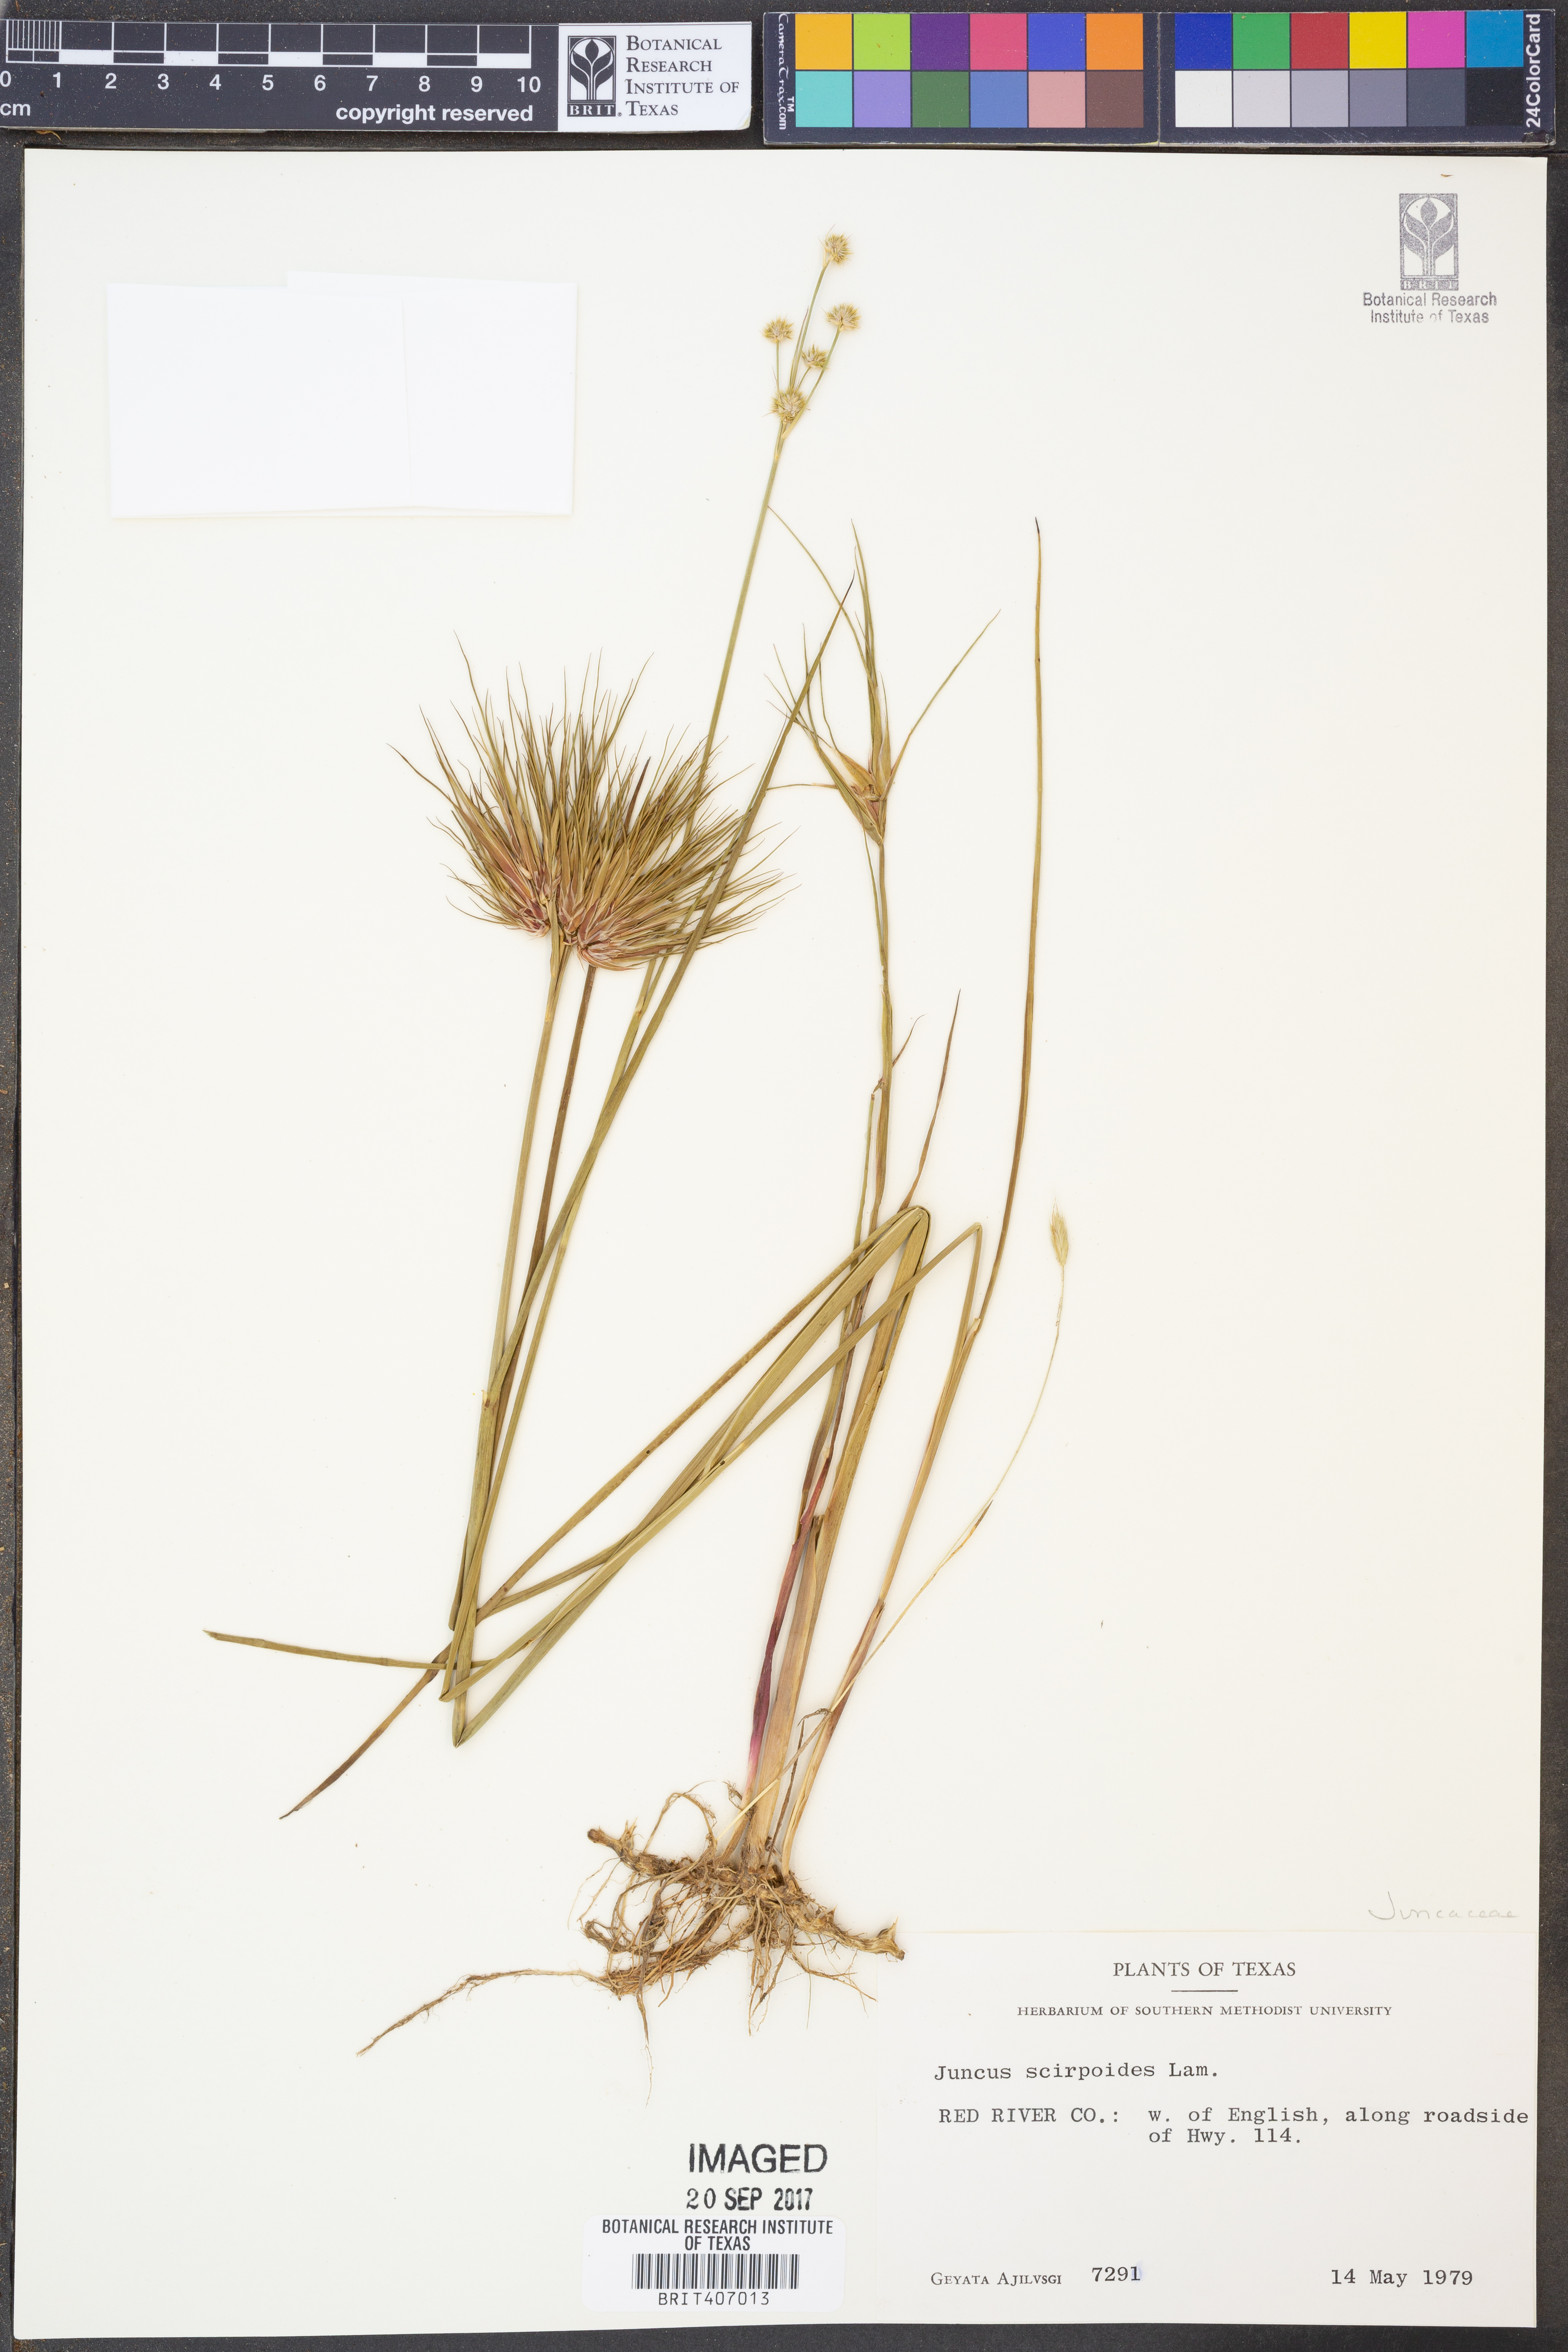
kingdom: Plantae
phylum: Tracheophyta
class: Liliopsida
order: Poales
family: Juncaceae
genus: Juncus
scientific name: Juncus scirpoides
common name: Needlepod rush
